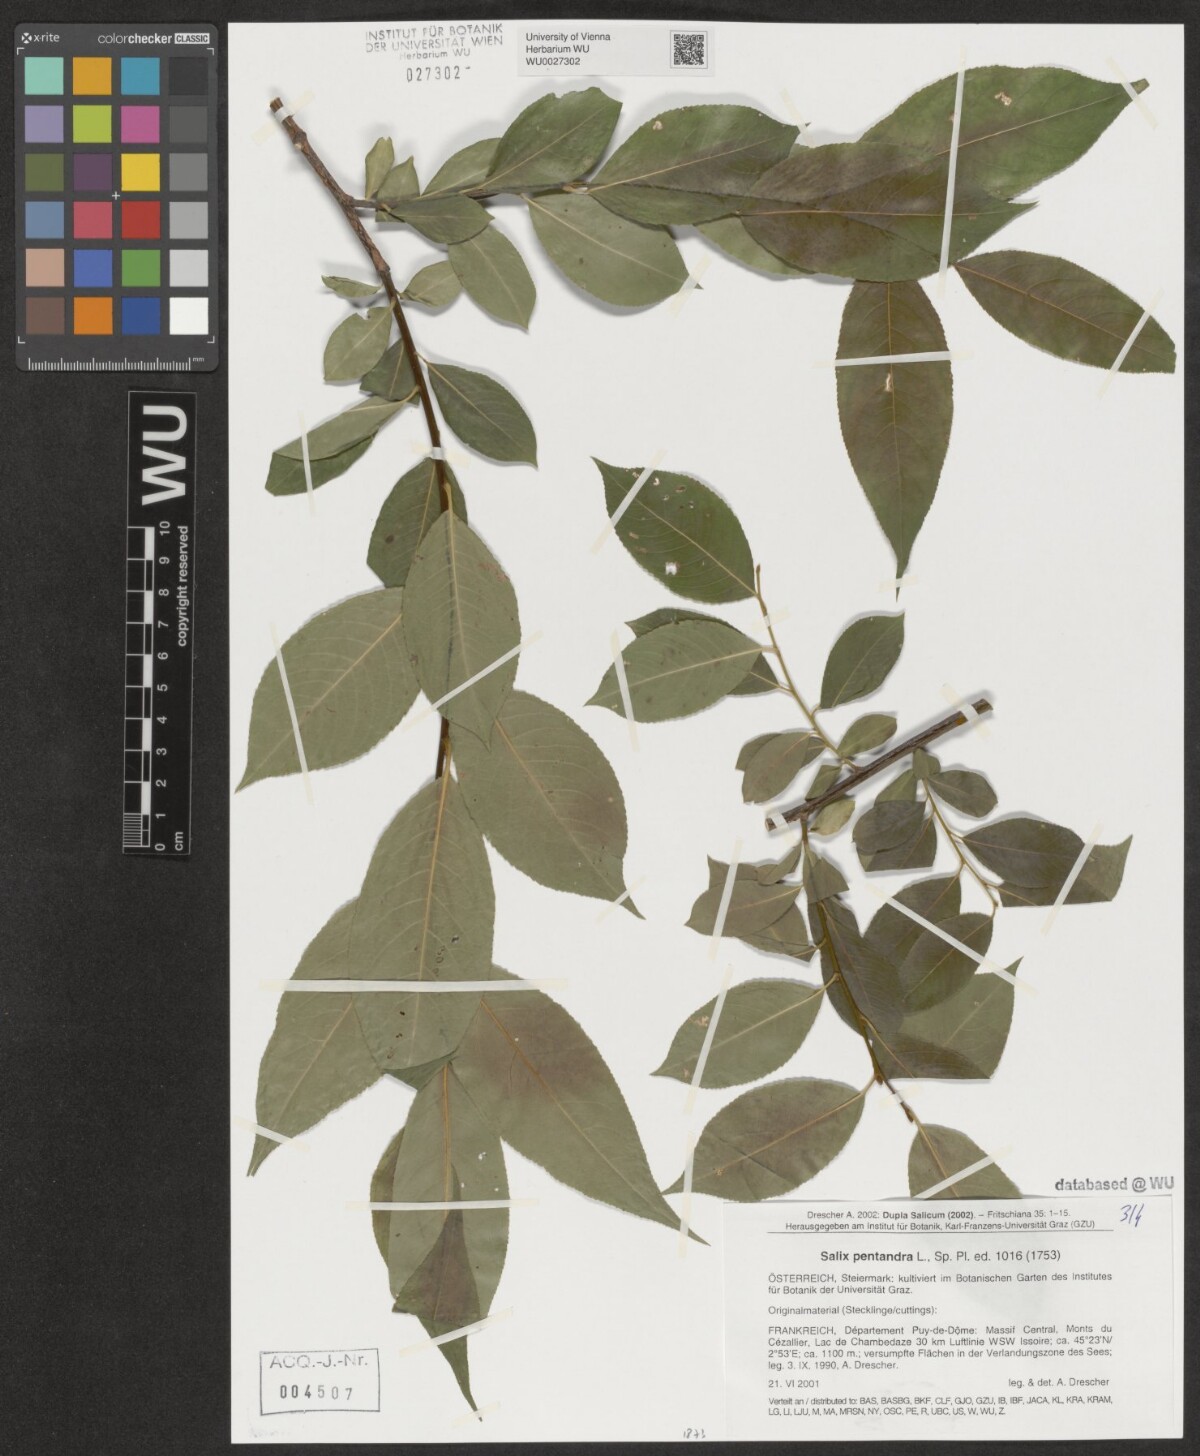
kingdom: Plantae
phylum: Tracheophyta
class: Magnoliopsida
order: Malpighiales
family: Salicaceae
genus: Salix
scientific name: Salix pentandra
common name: Bay willow
